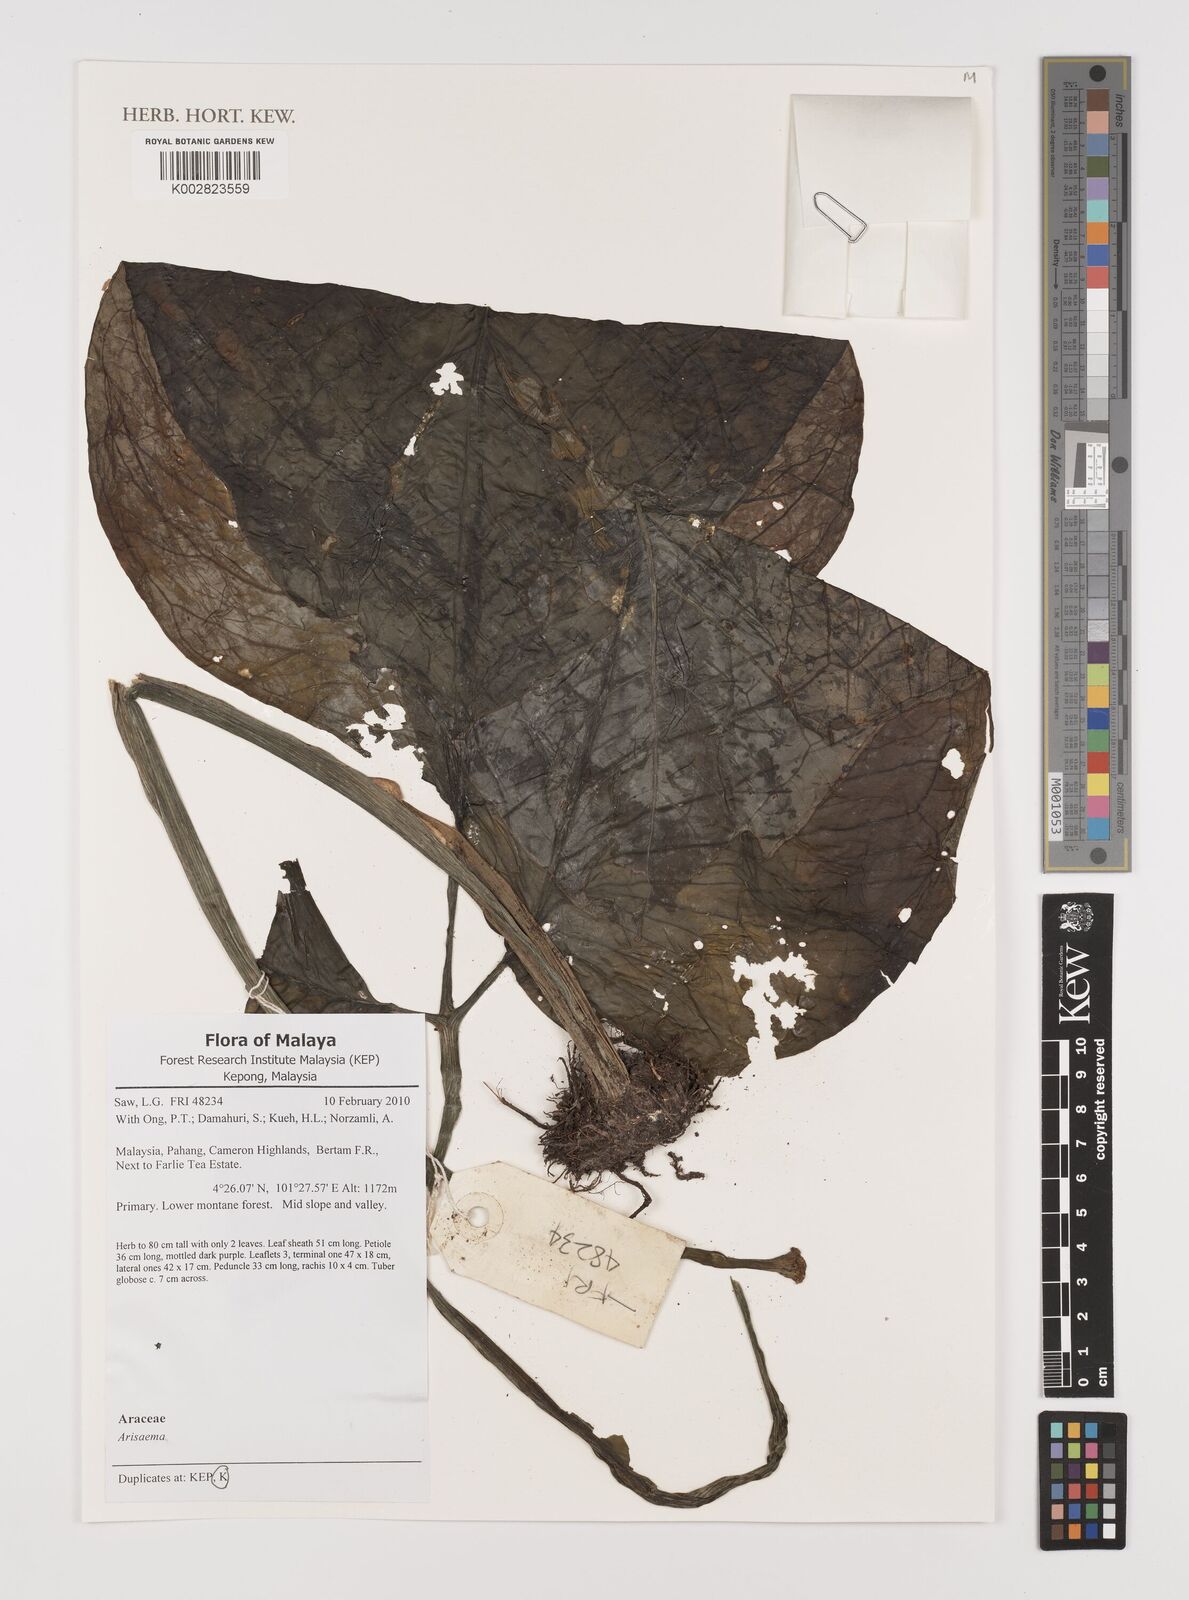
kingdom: Plantae
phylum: Tracheophyta
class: Liliopsida
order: Alismatales
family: Araceae
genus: Arisaema
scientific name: Arisaema
